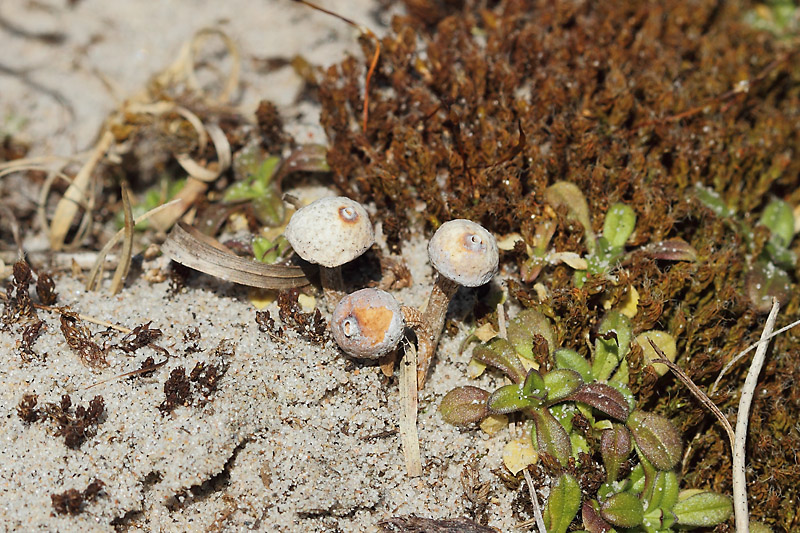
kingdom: Fungi
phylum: Basidiomycota
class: Agaricomycetes
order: Agaricales
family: Agaricaceae
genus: Tulostoma
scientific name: Tulostoma brumale
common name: vinter-stilkbovist
